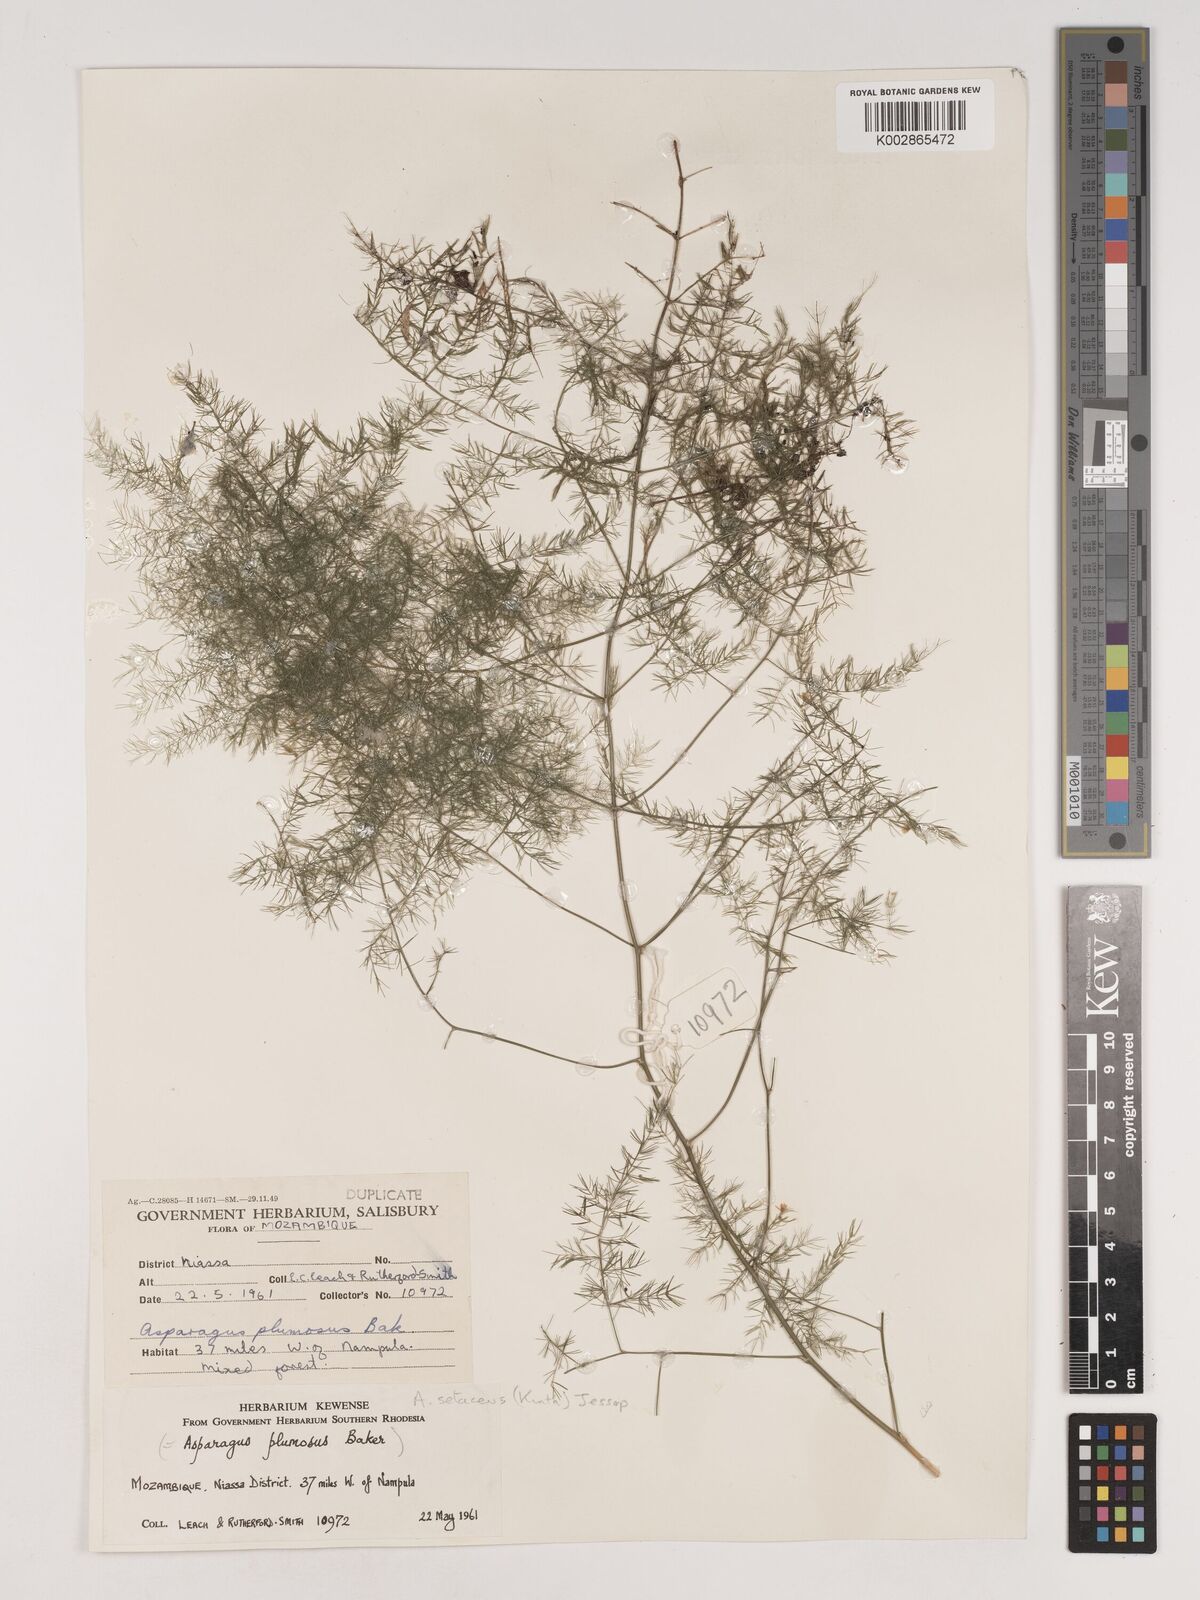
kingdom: Plantae
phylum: Tracheophyta
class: Liliopsida
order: Asparagales
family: Asparagaceae
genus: Asparagus
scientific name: Asparagus setaceus
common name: Common asparagus fern
